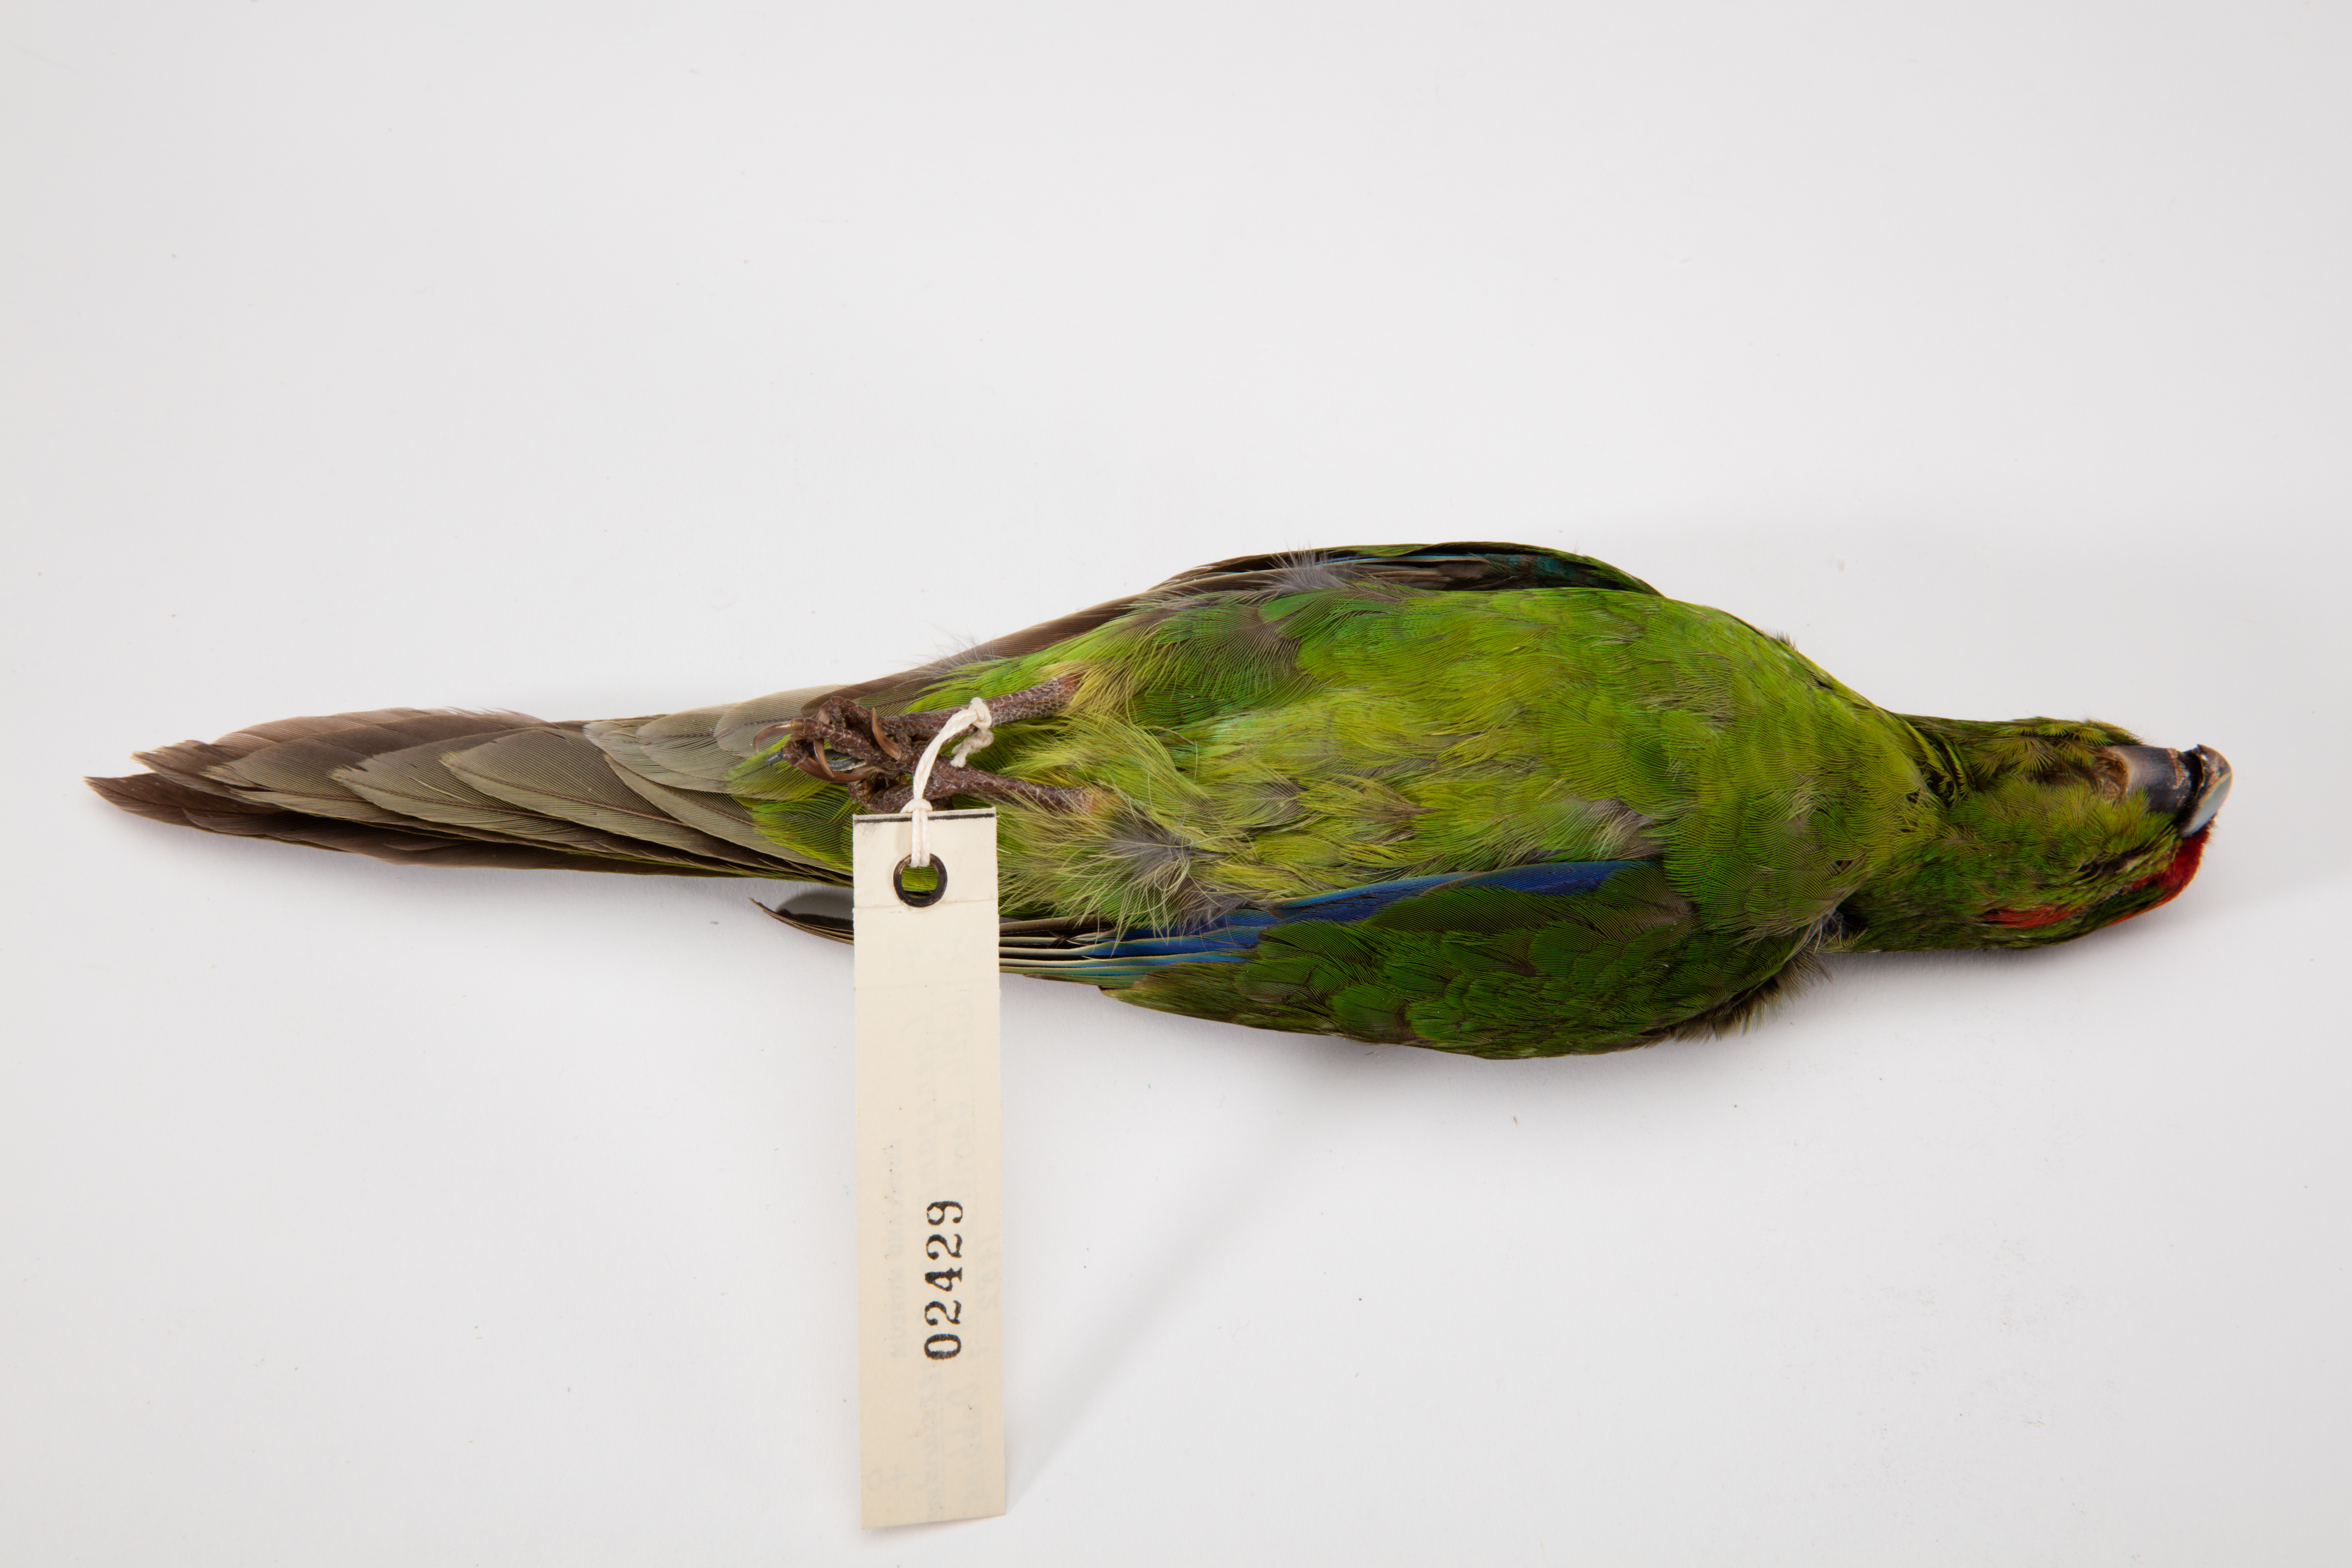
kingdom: Animalia
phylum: Chordata
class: Aves
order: Psittaciformes
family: Psittacidae
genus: Cyanoramphus
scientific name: Cyanoramphus novaezelandiae
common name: Red-fronted parakeet
